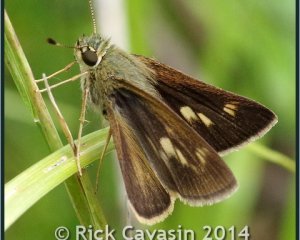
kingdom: Animalia
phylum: Arthropoda
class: Insecta
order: Lepidoptera
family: Hesperiidae
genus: Polites
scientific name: Polites egeremet
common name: Northern Broken-Dash
